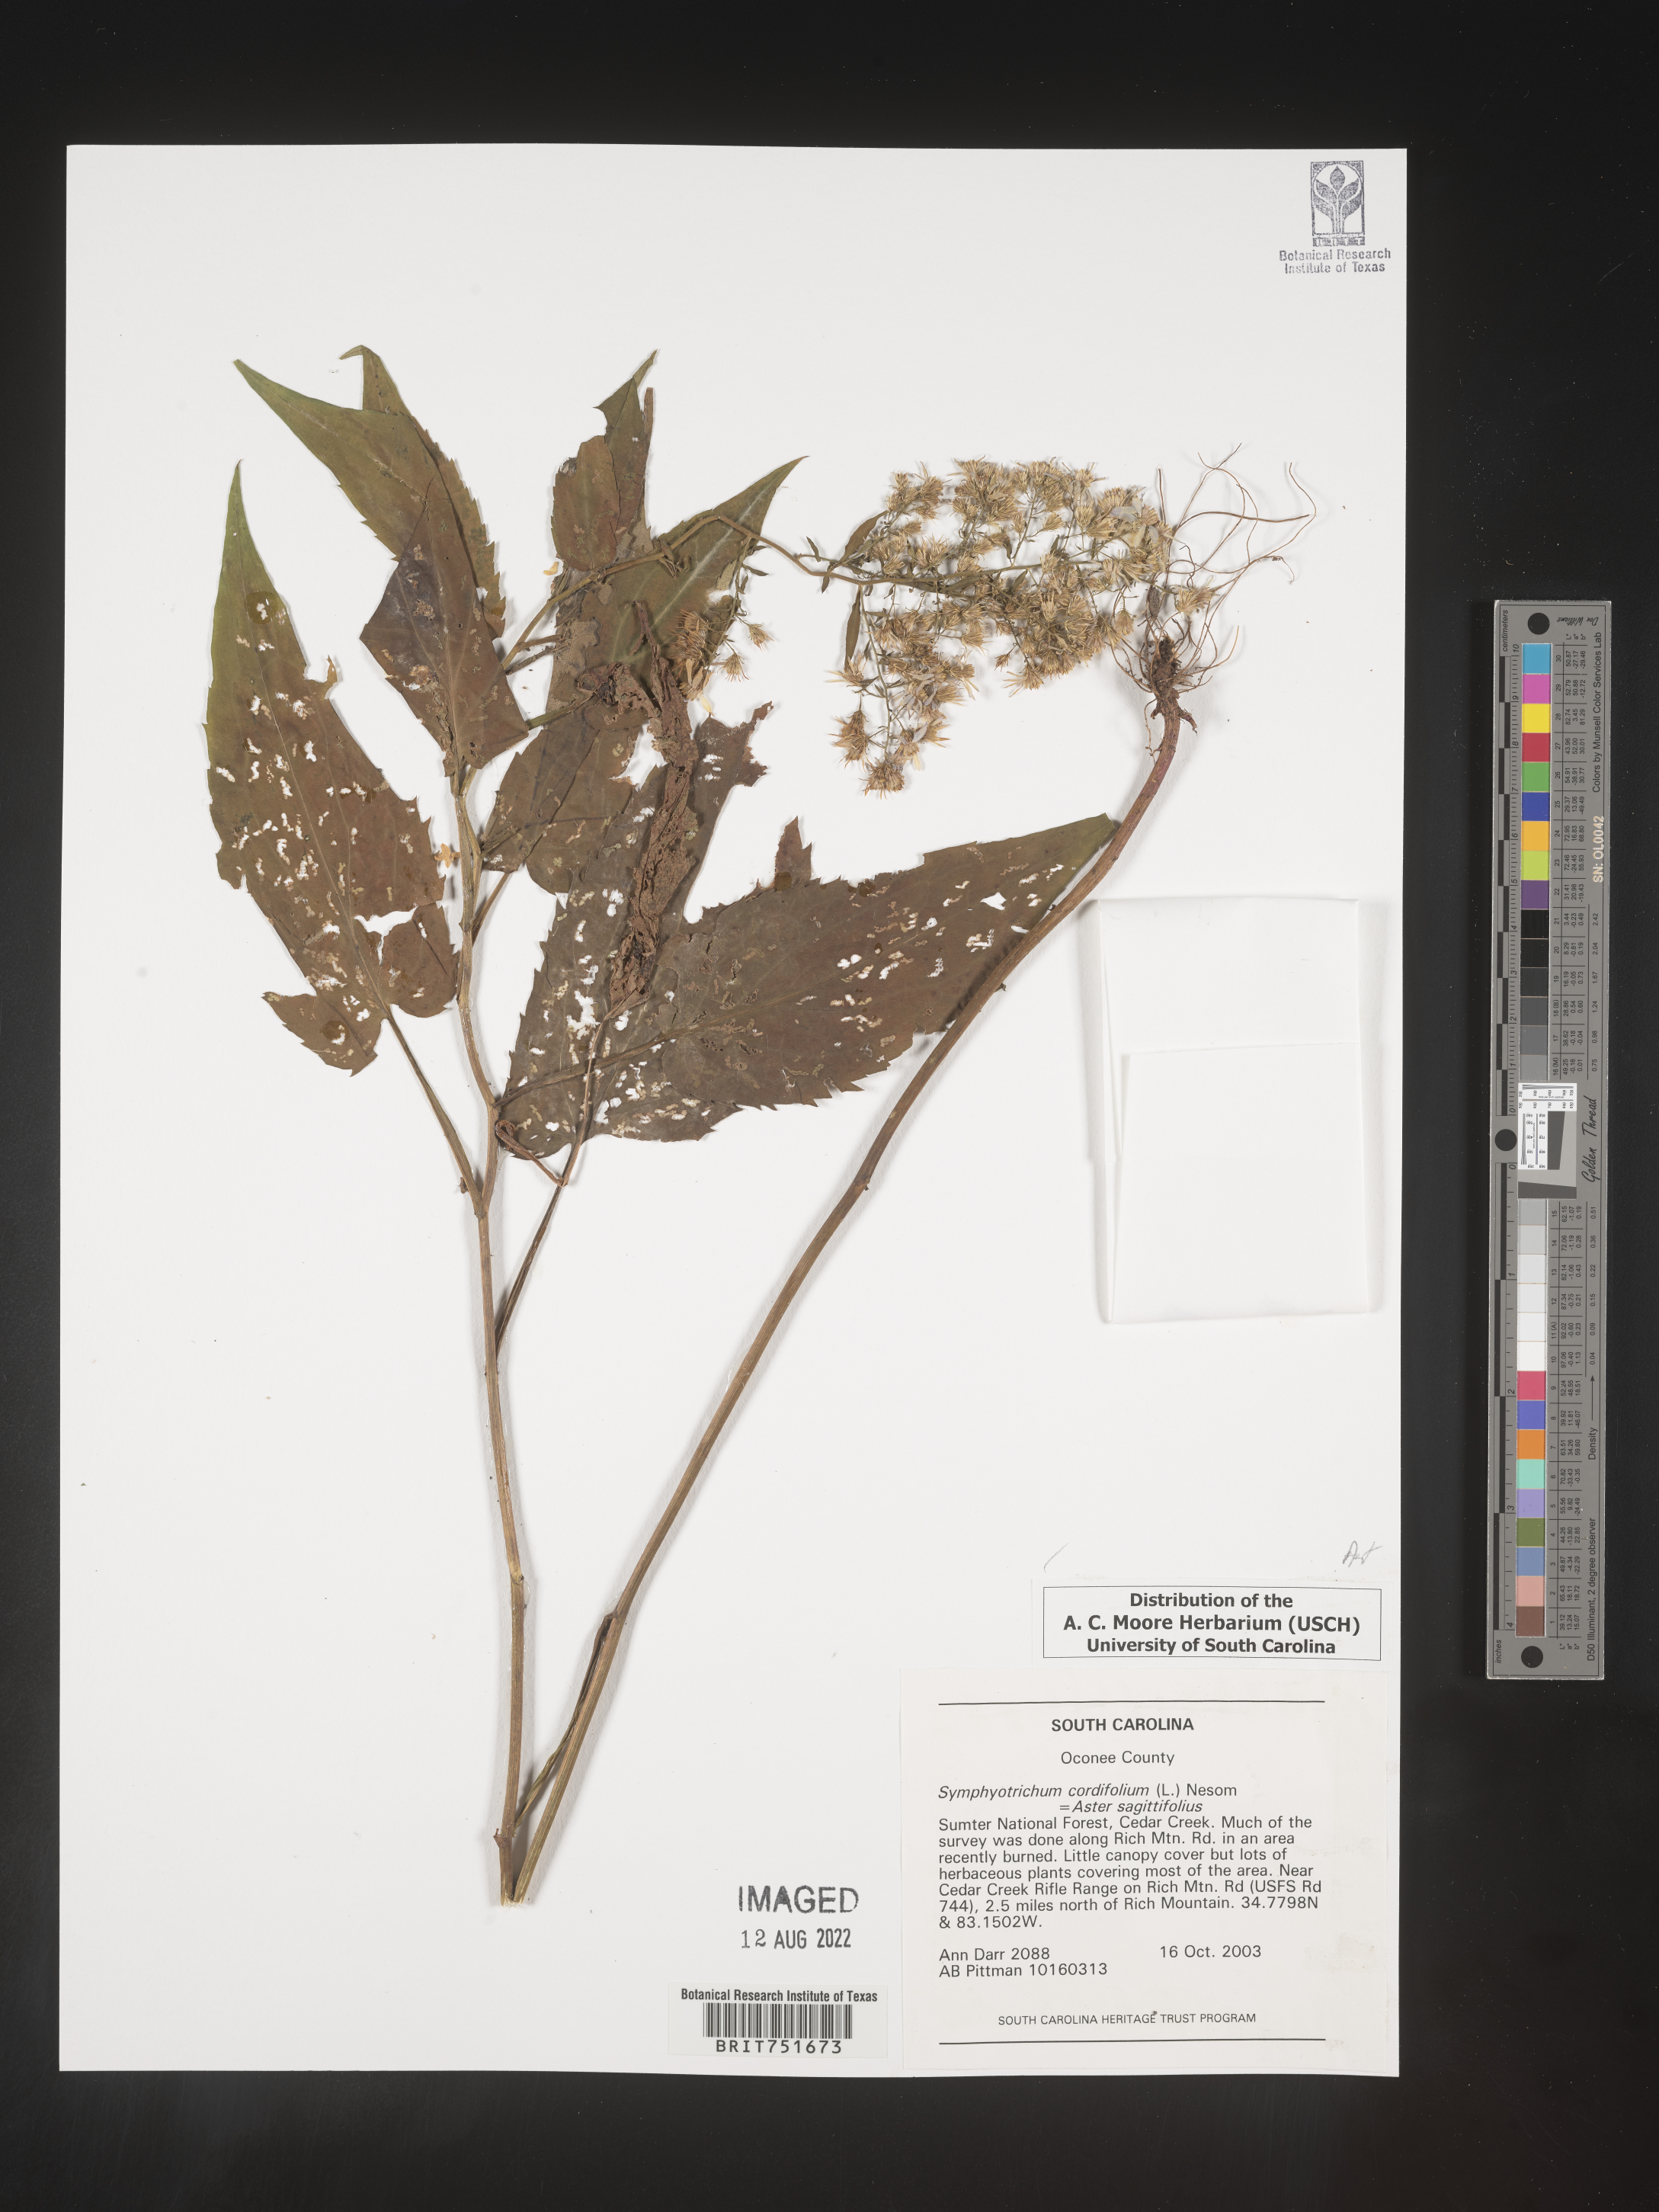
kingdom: Plantae
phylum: Tracheophyta
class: Magnoliopsida
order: Asterales
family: Asteraceae
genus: Symphyotrichum
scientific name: Symphyotrichum cordifolium
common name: Beeweed
